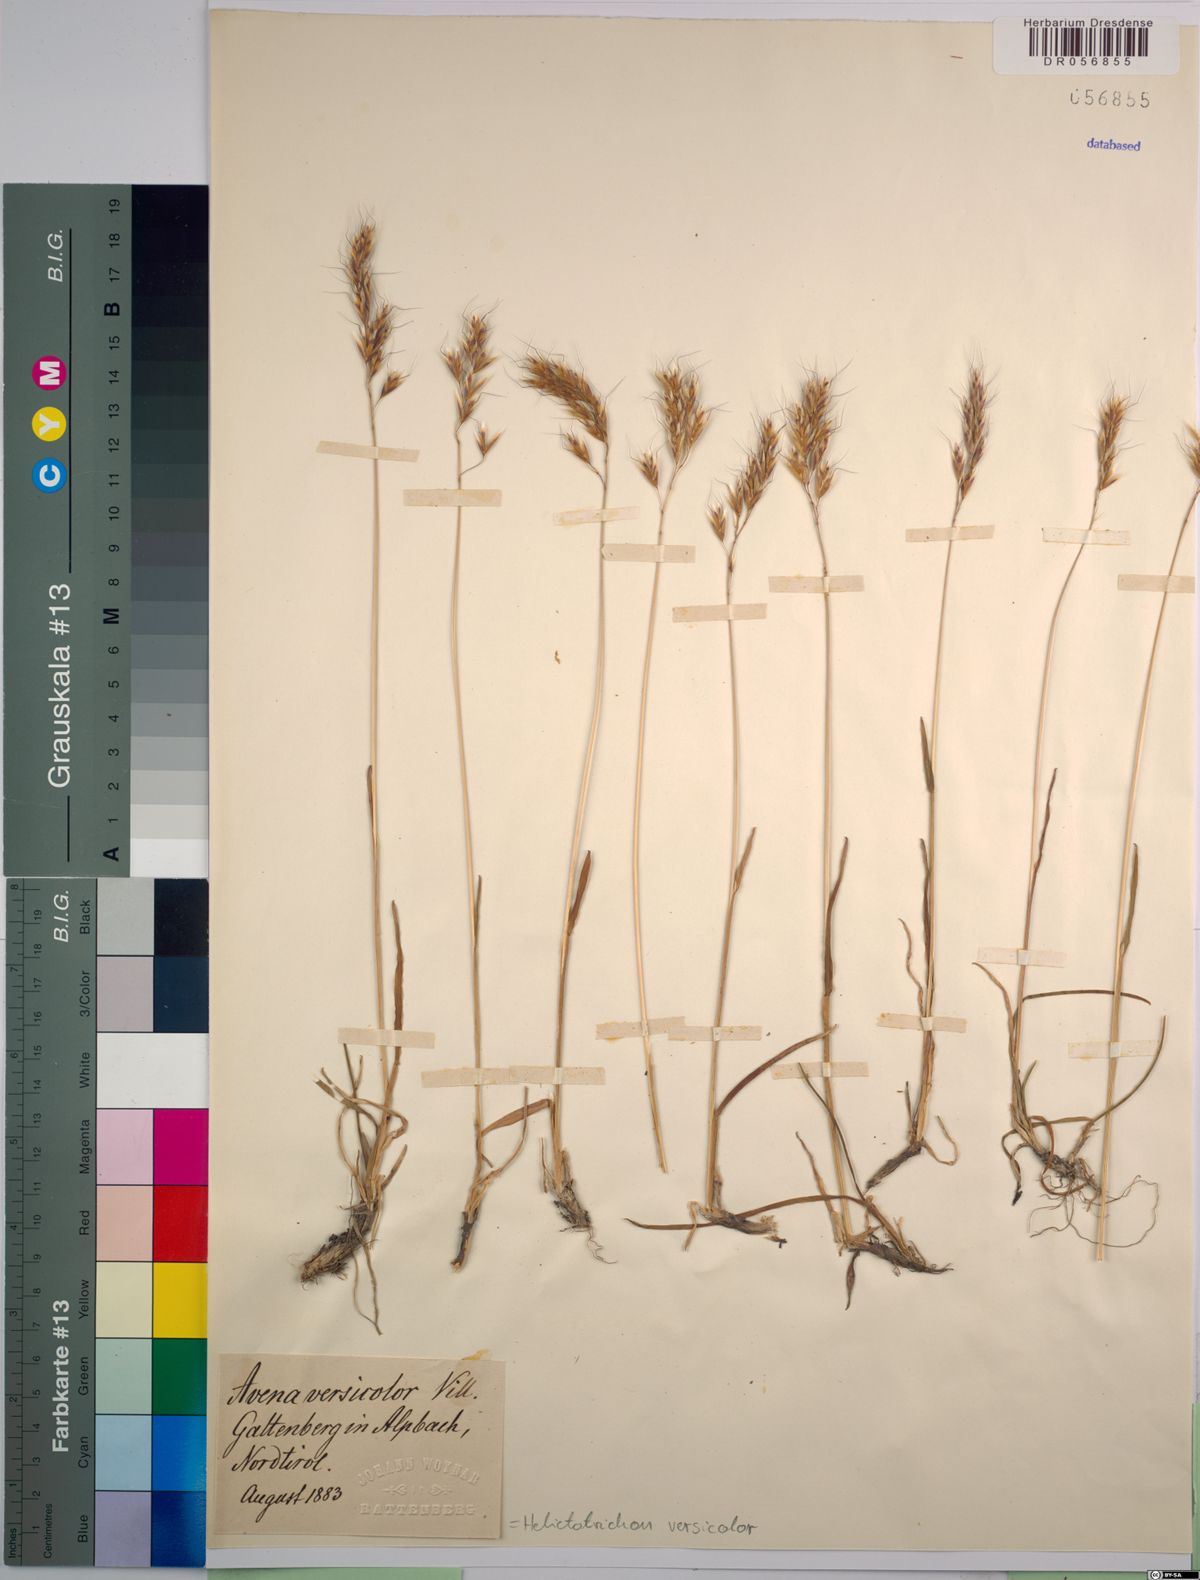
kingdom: Plantae
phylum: Tracheophyta
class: Liliopsida
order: Poales
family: Poaceae
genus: Helictochloa
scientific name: Helictochloa versicolor
